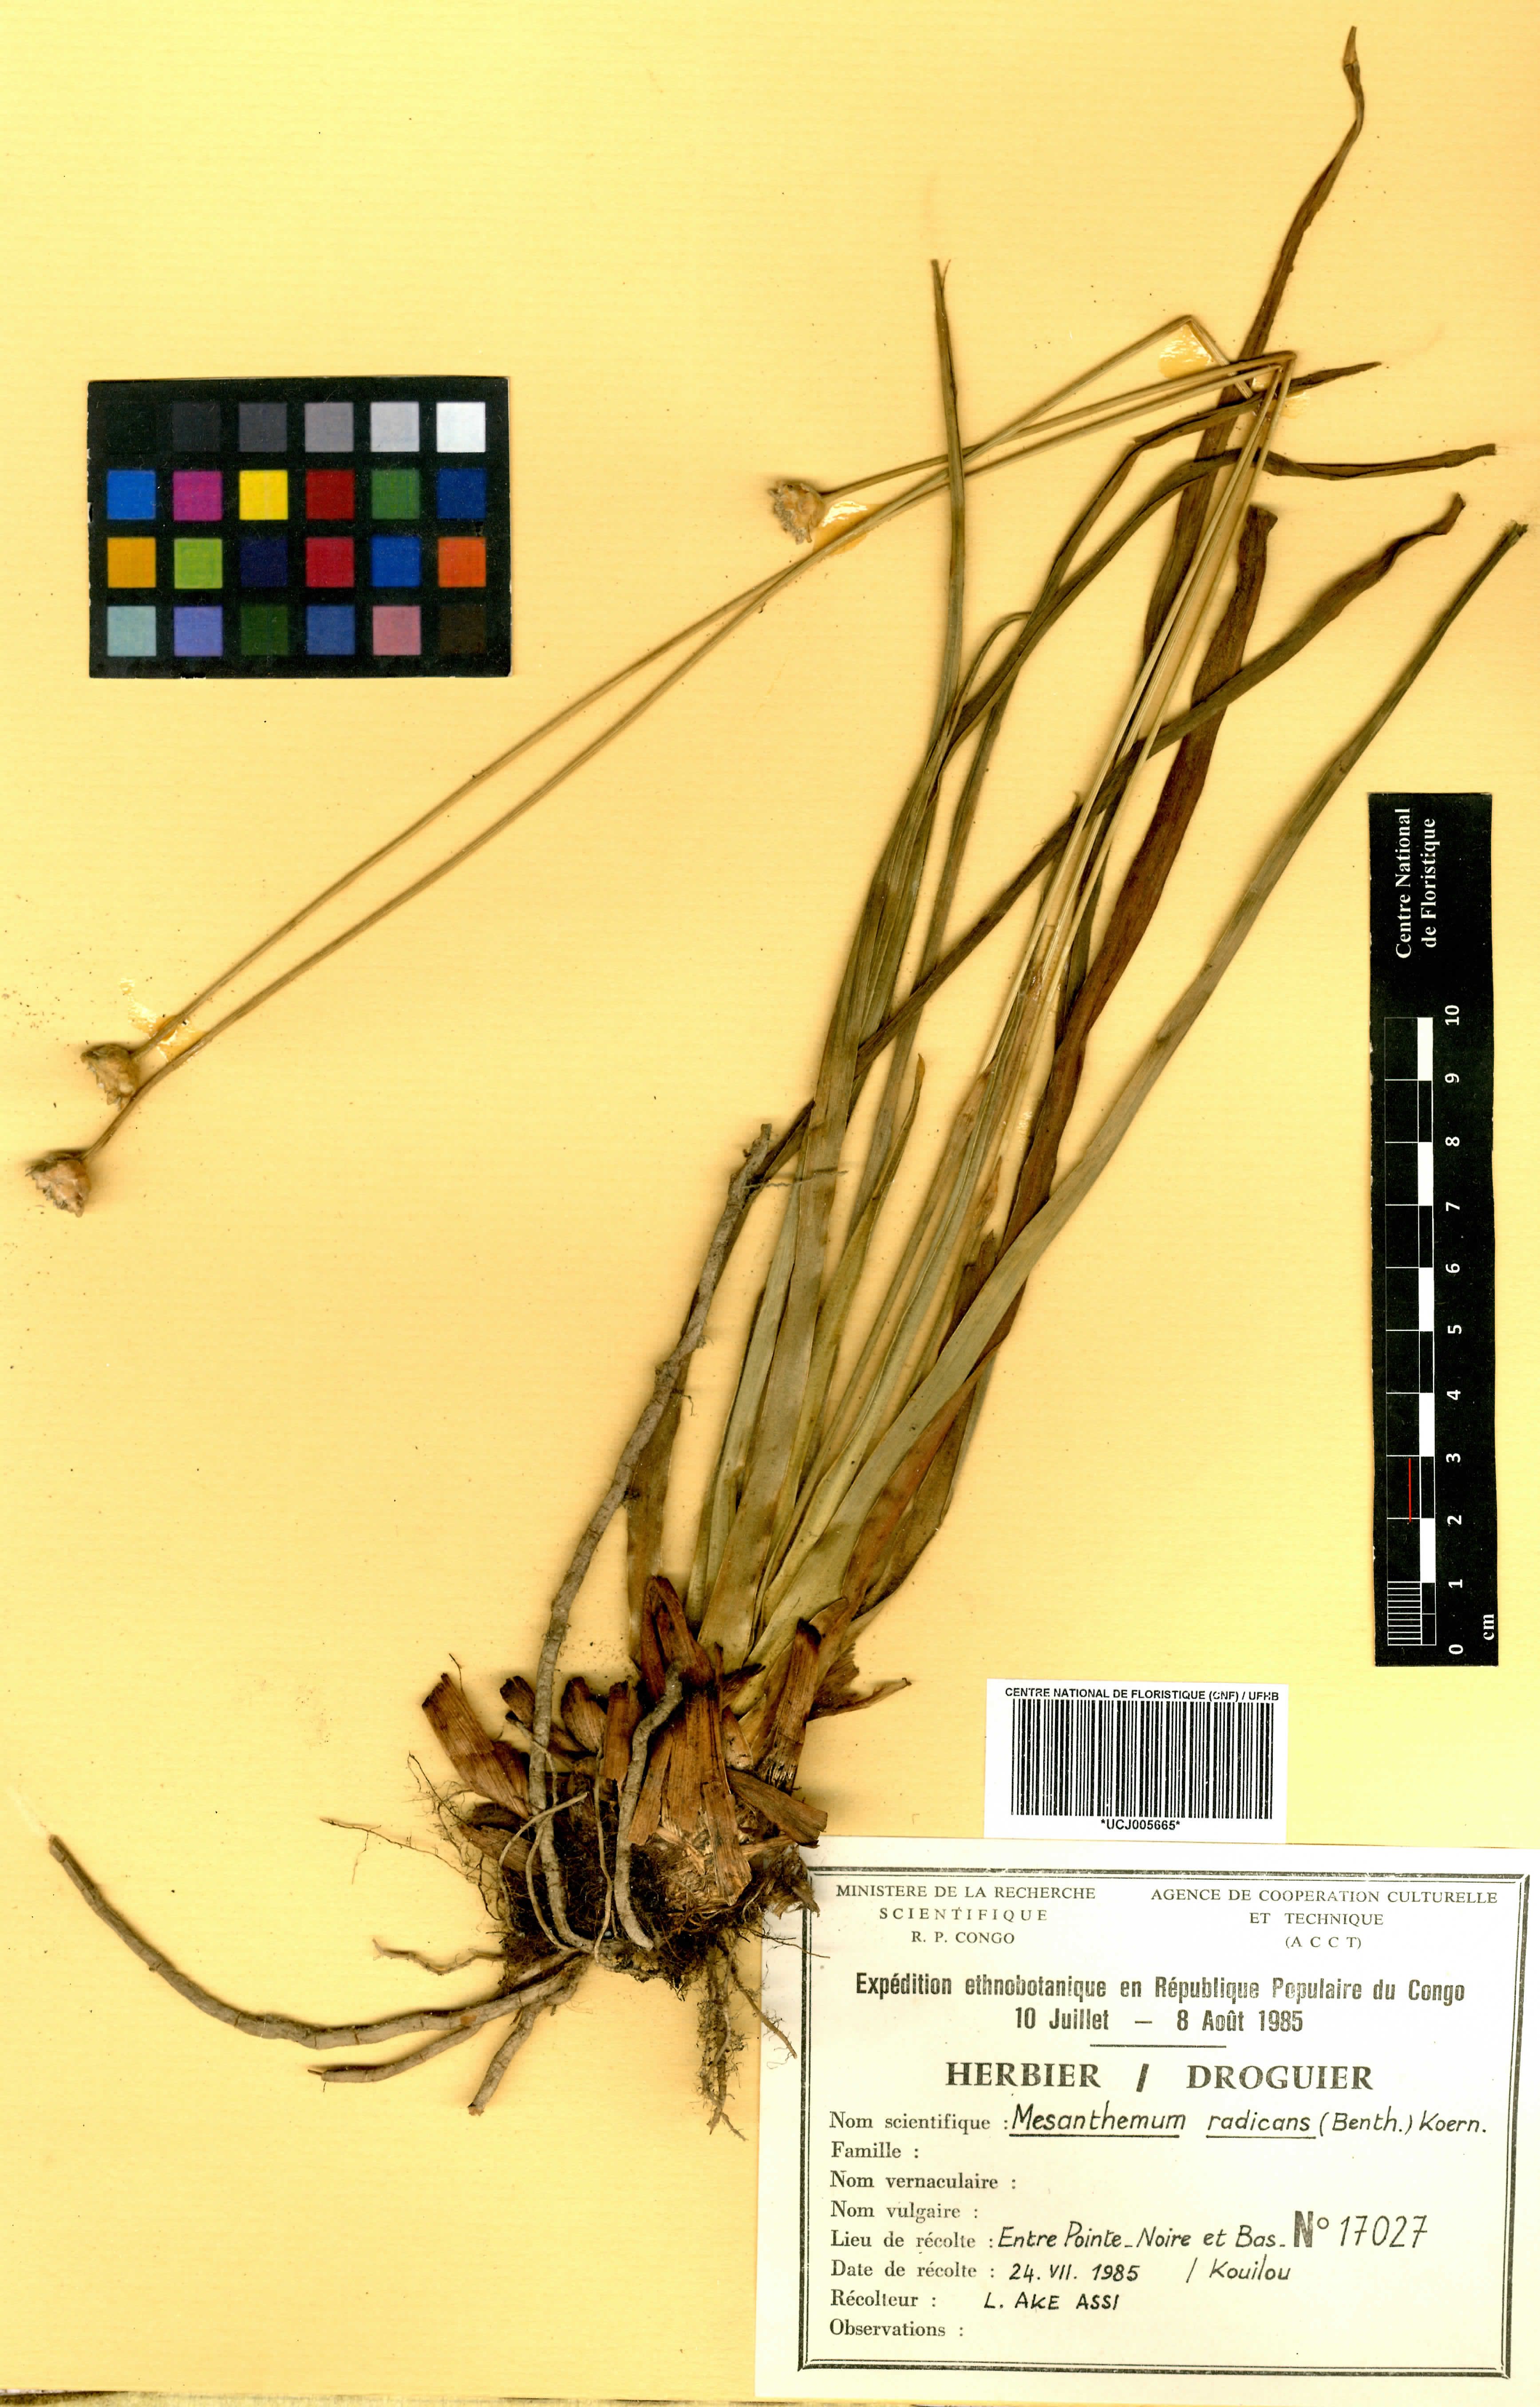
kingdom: Plantae
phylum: Tracheophyta
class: Liliopsida
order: Poales
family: Eriocaulaceae
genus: Mesanthemum
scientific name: Mesanthemum radicans
